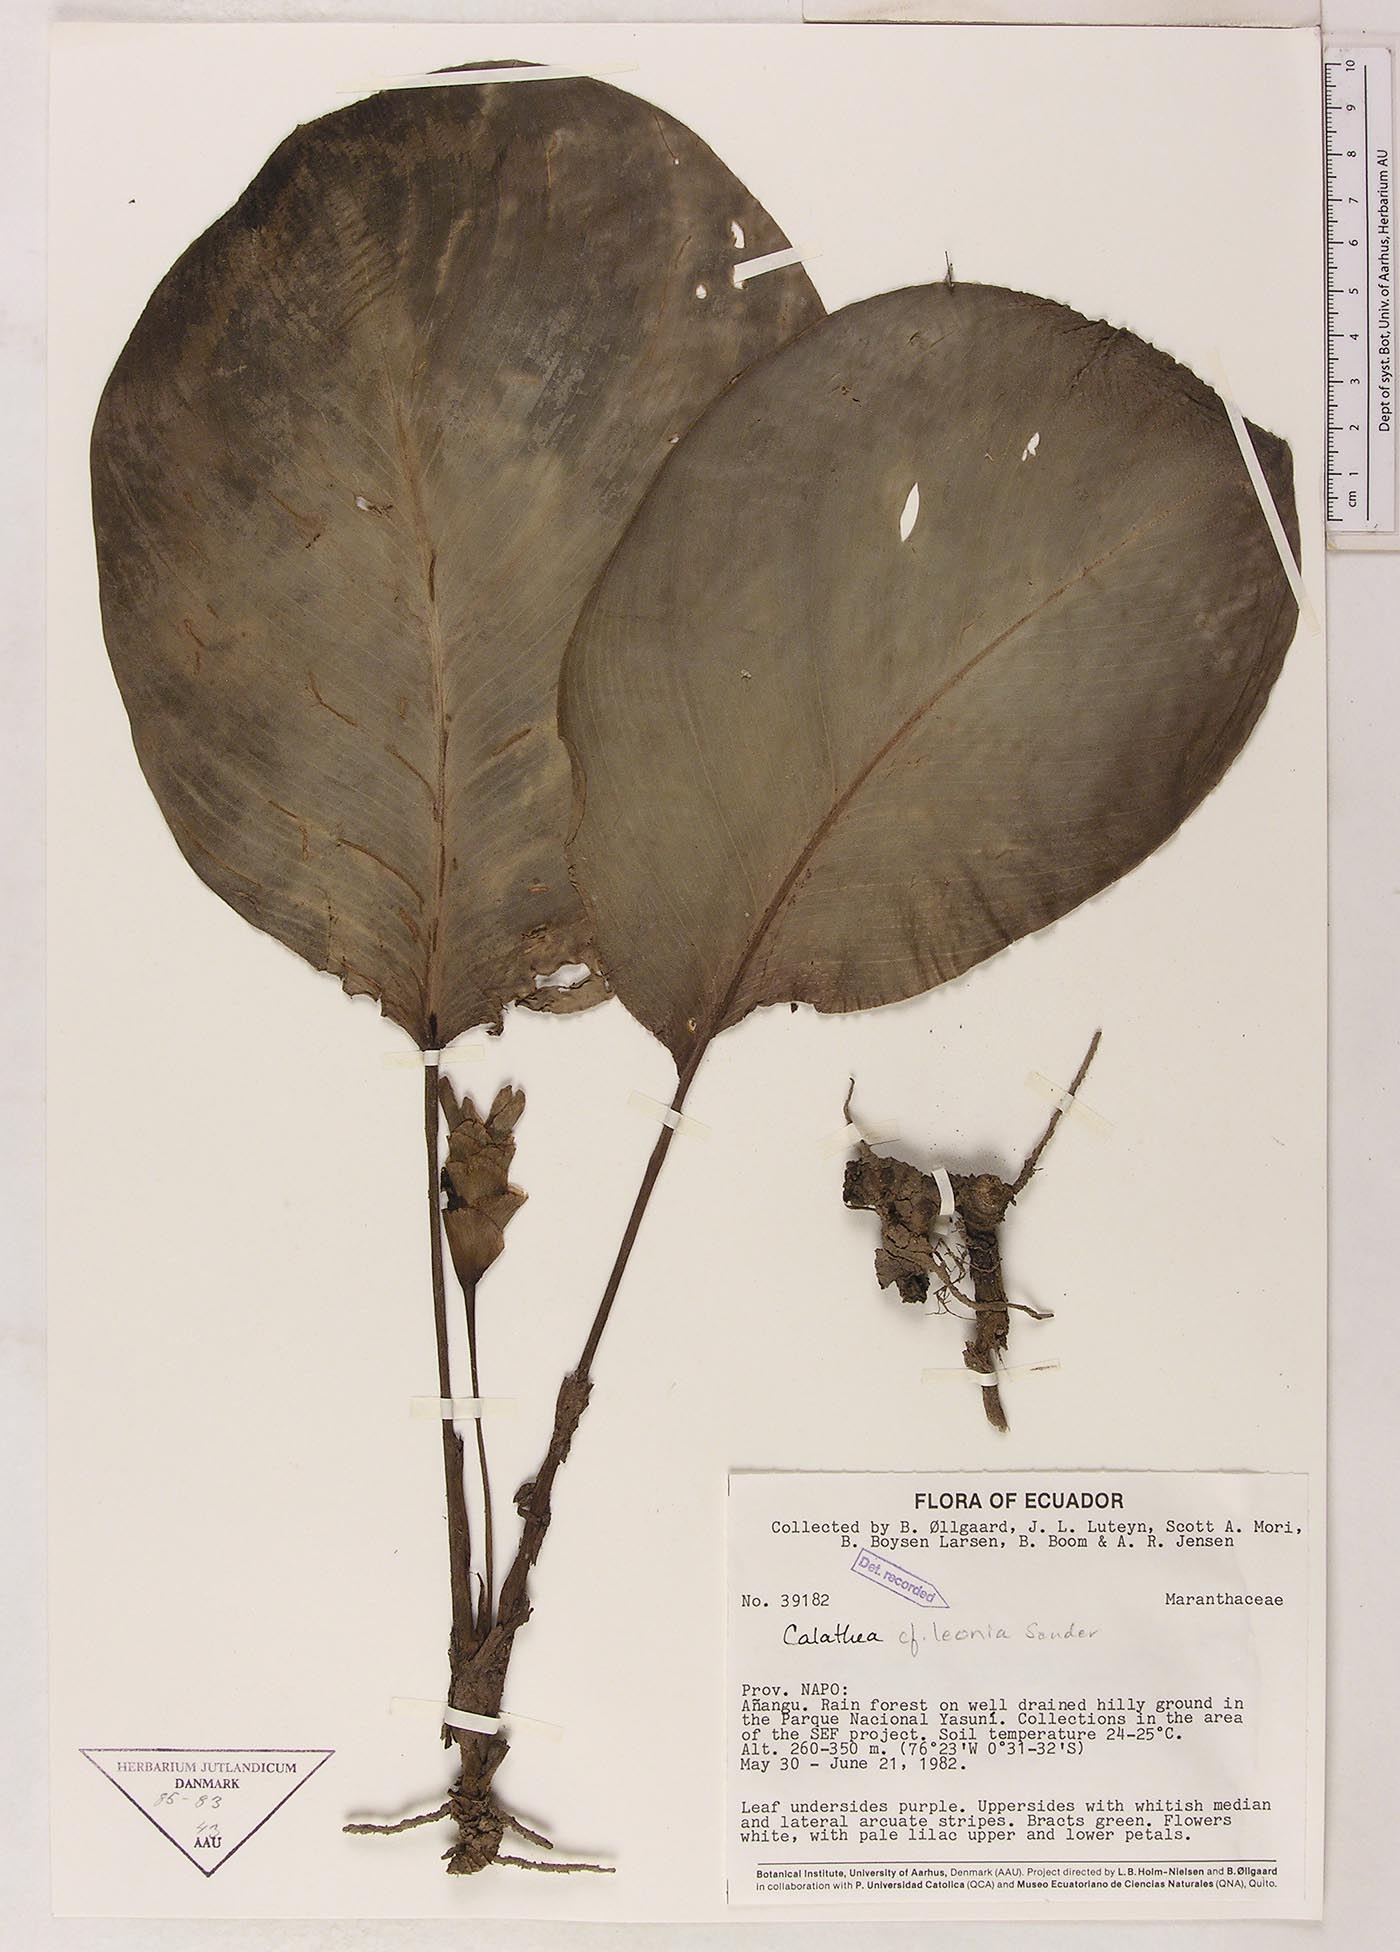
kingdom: Plantae
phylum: Tracheophyta
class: Liliopsida
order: Zingiberales
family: Marantaceae
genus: Goeppertia
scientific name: Goeppertia leonia
